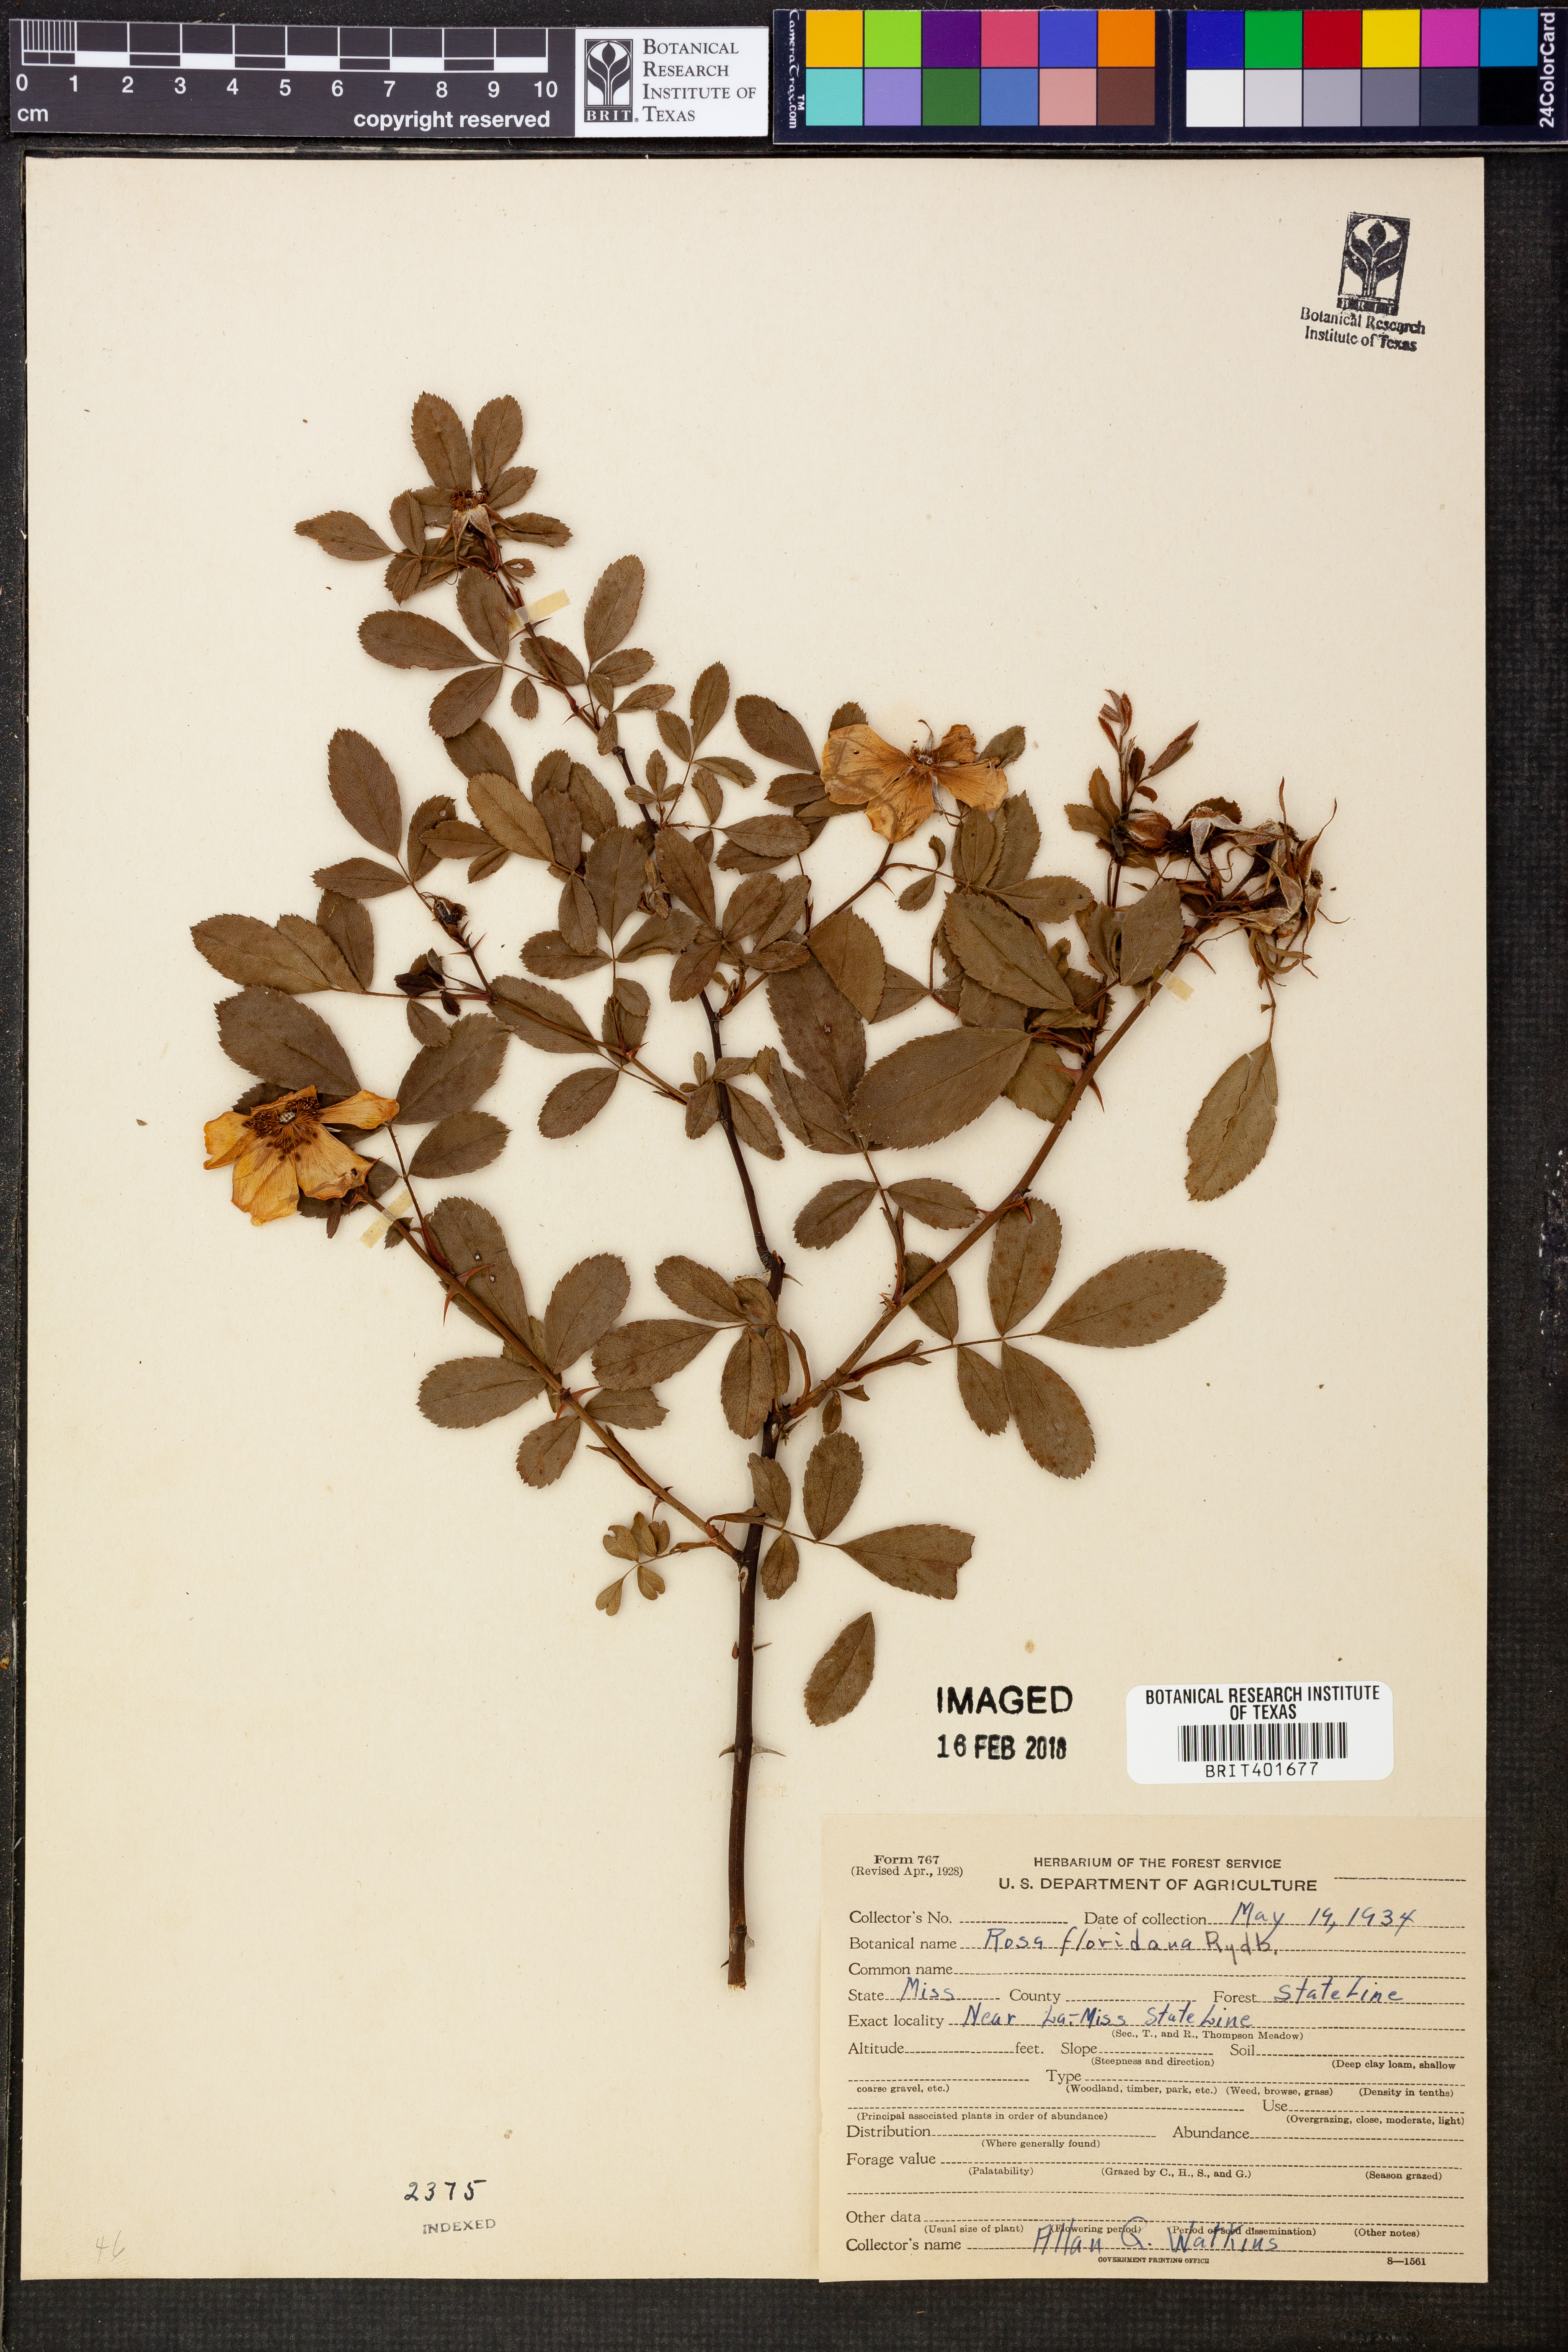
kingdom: Plantae
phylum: Tracheophyta
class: Magnoliopsida
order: Rosales
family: Rosaceae
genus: Rosa
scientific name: Rosa palustris
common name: Swamp rose
